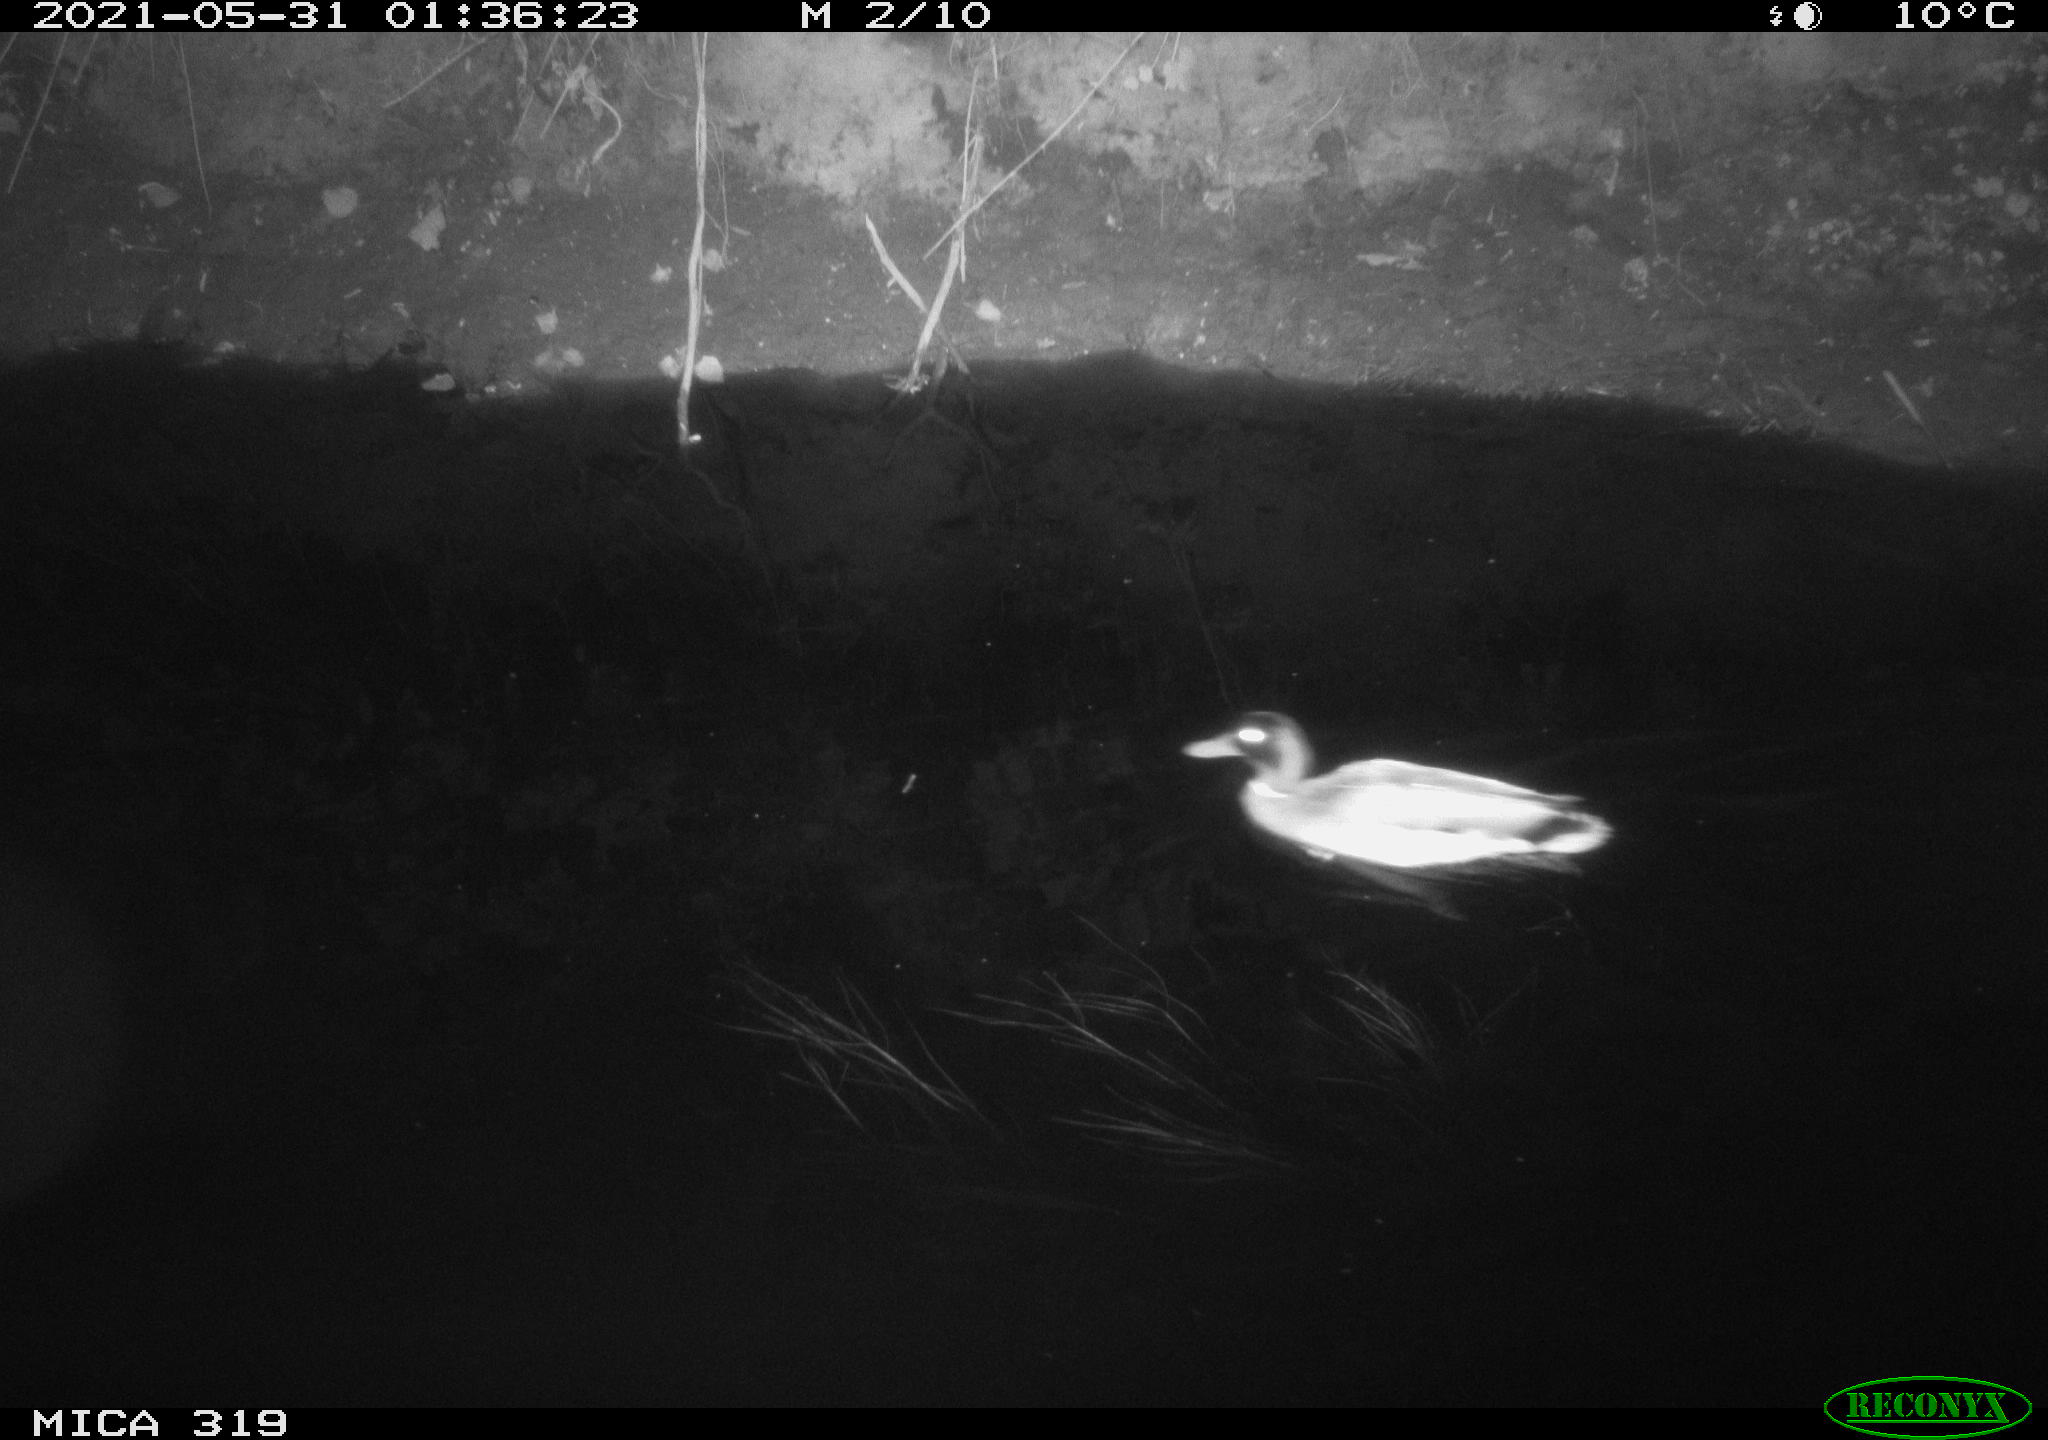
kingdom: Animalia
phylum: Chordata
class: Aves
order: Anseriformes
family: Anatidae
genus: Anas
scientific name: Anas platyrhynchos
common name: Mallard
